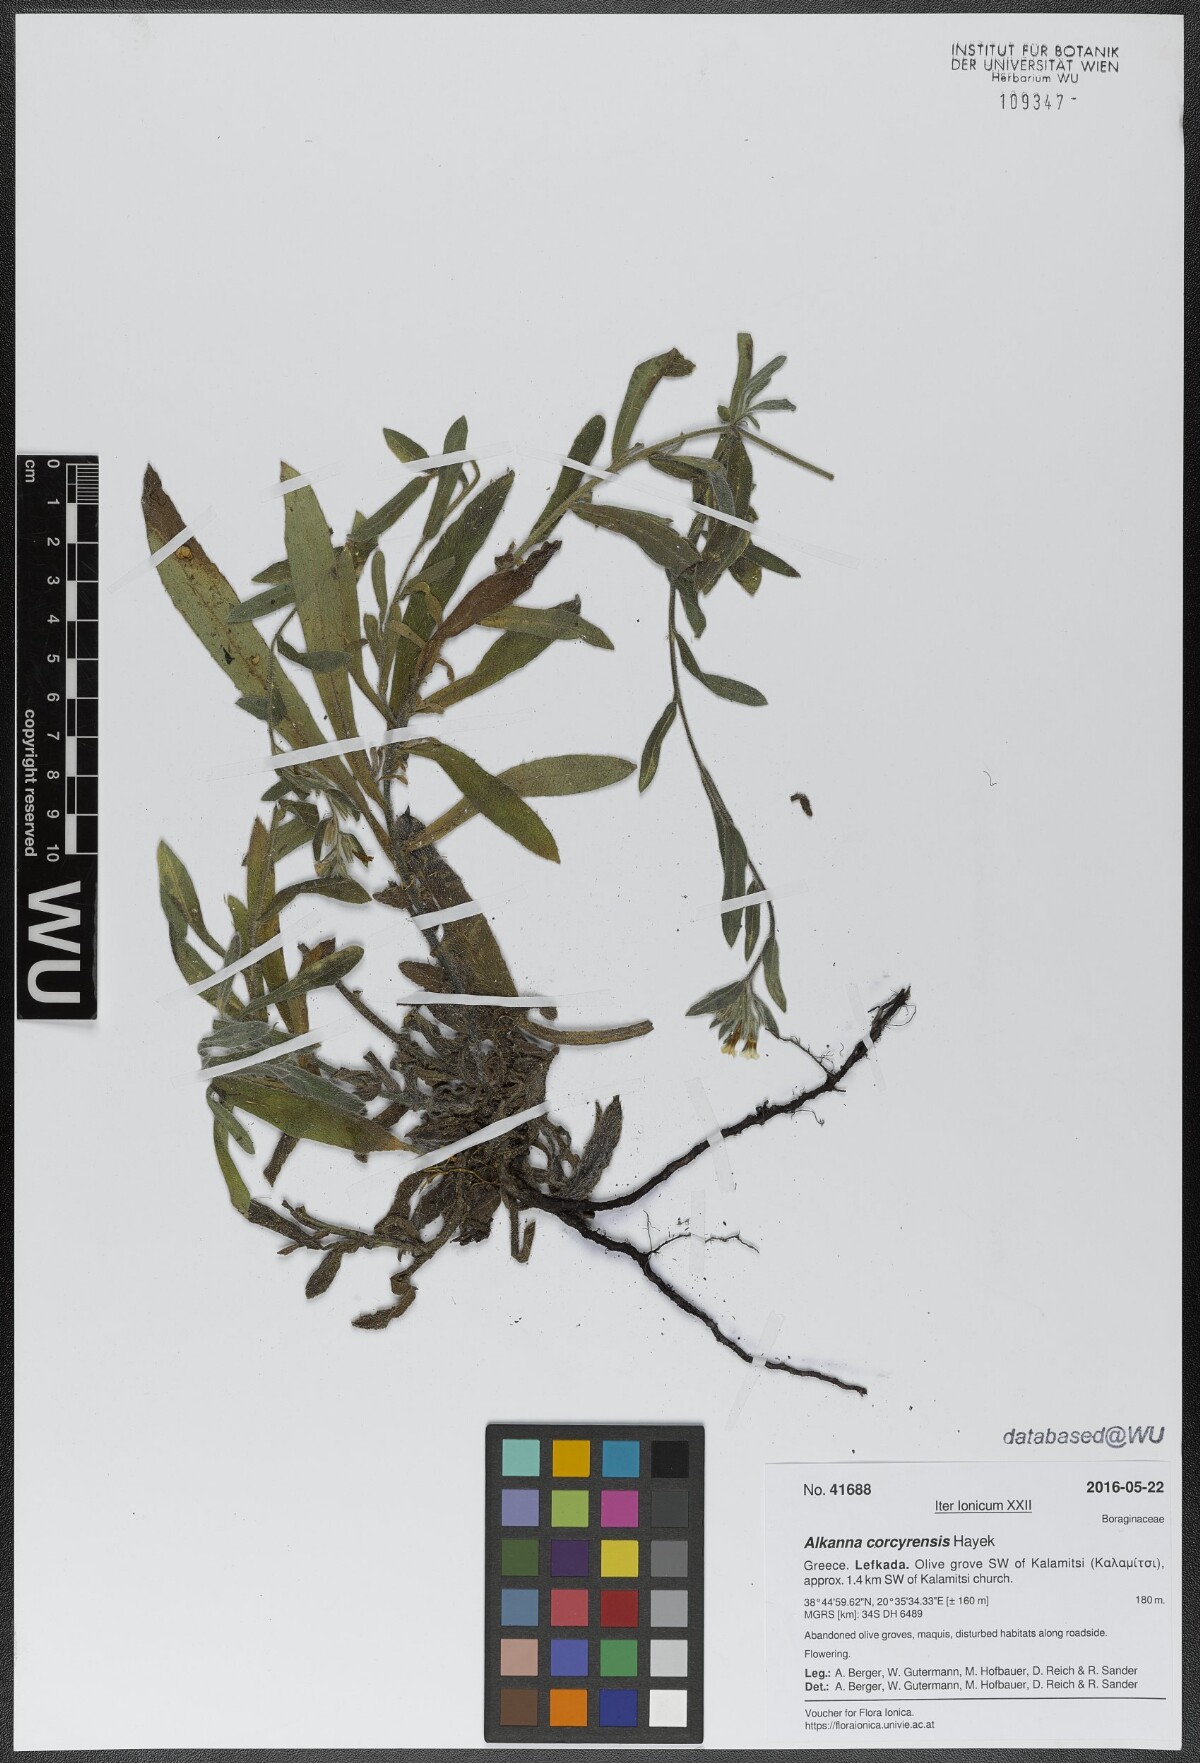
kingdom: Plantae
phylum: Tracheophyta
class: Magnoliopsida
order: Boraginales
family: Boraginaceae
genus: Alkanna
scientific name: Alkanna corcyrensis
